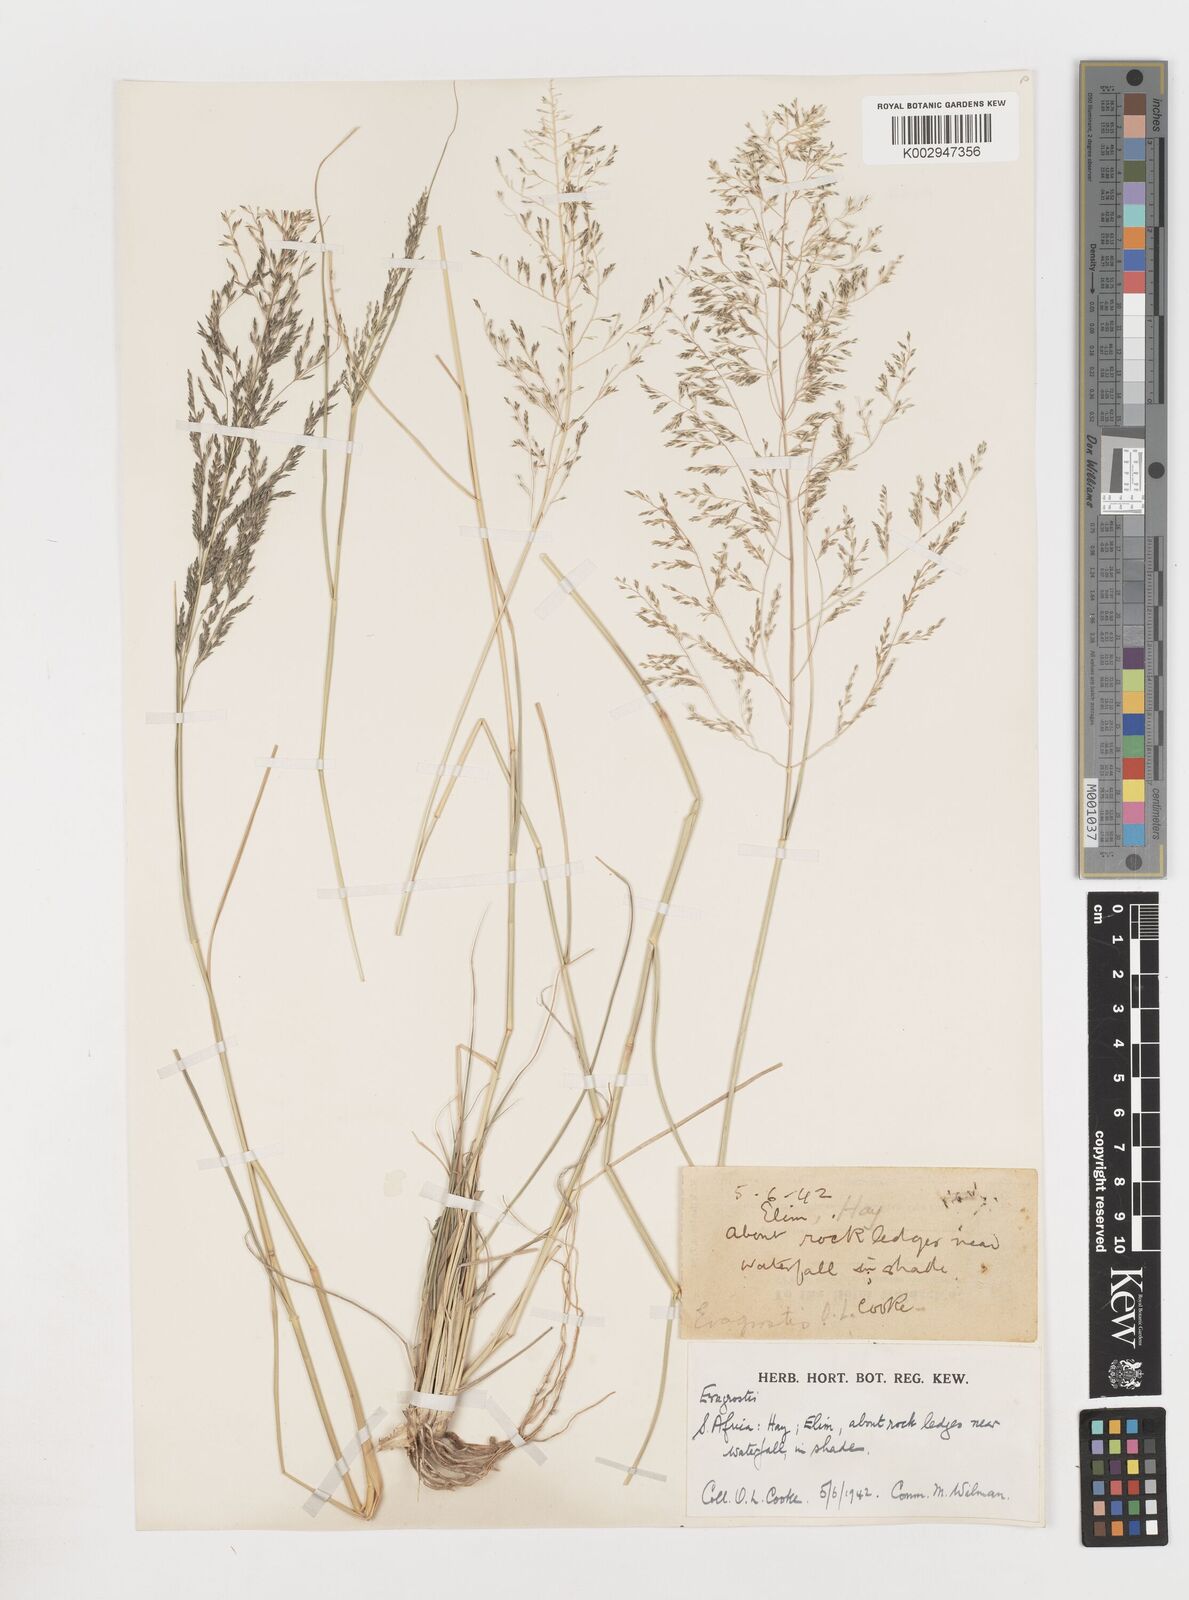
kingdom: Plantae
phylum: Tracheophyta
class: Liliopsida
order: Poales
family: Poaceae
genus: Eragrostis
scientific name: Eragrostis
